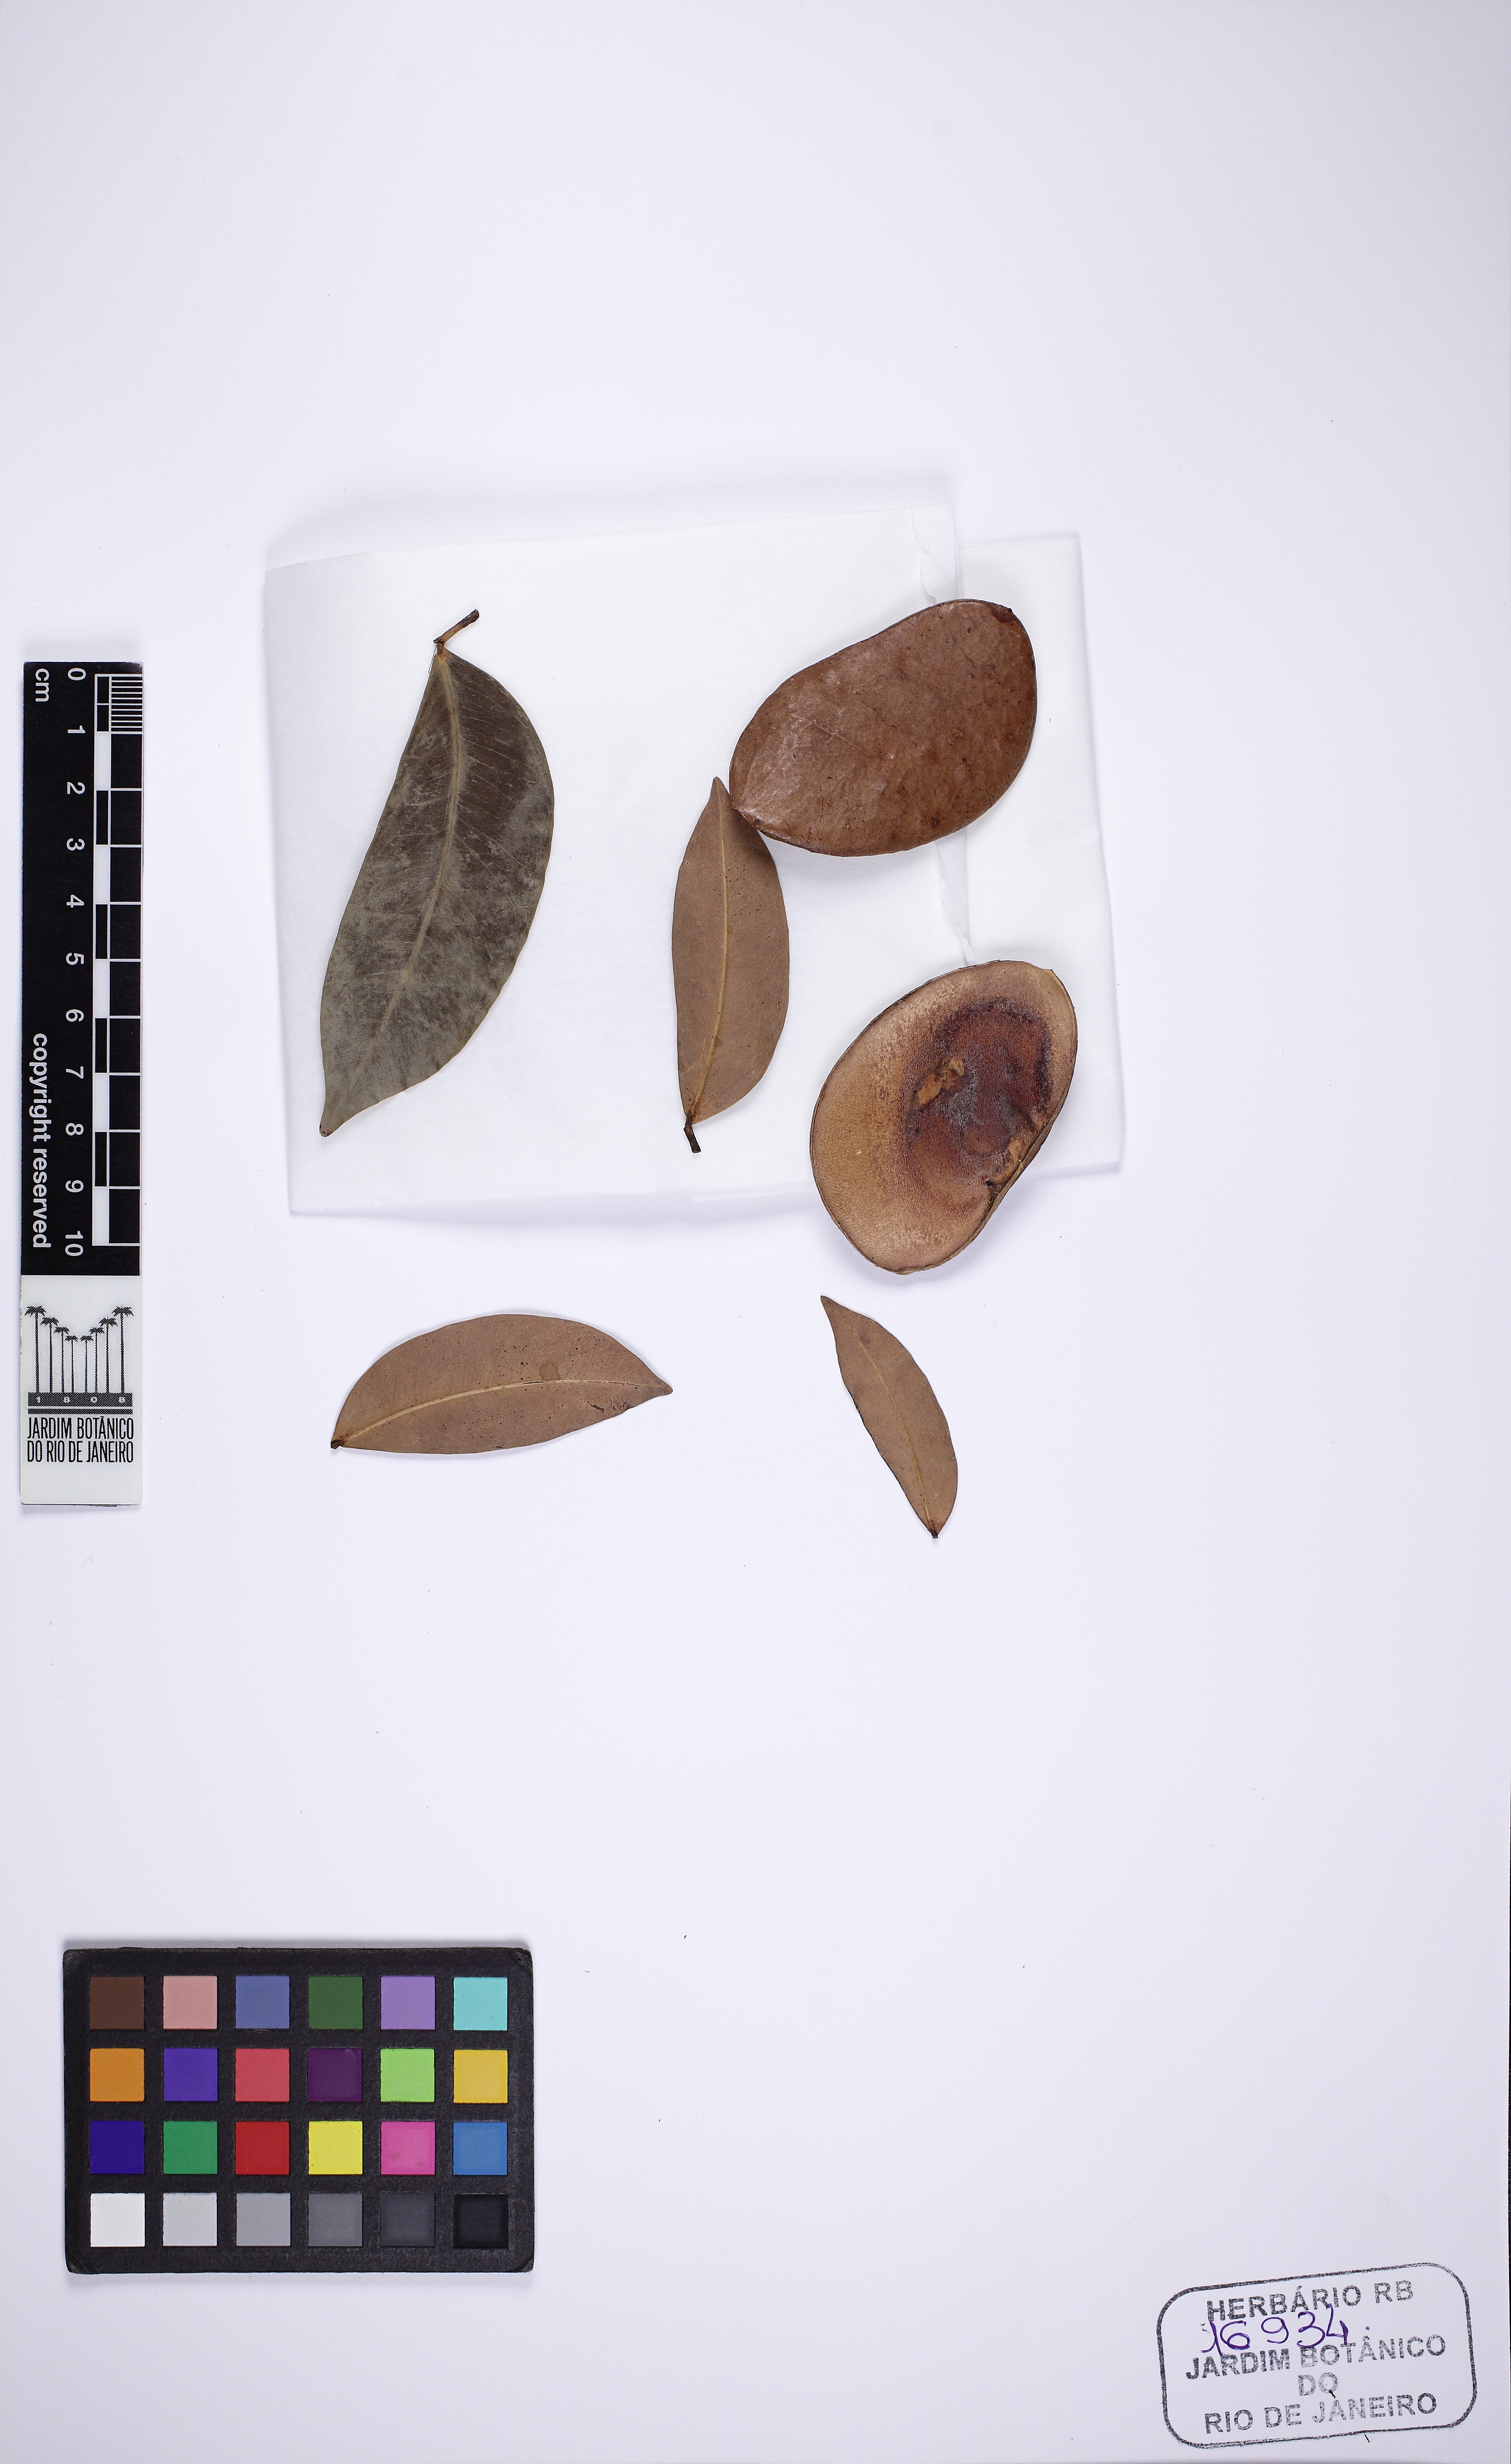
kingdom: Plantae
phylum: Tracheophyta
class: Magnoliopsida
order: Fabales
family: Fabaceae
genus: Macrolobium
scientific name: Macrolobium pendulum
